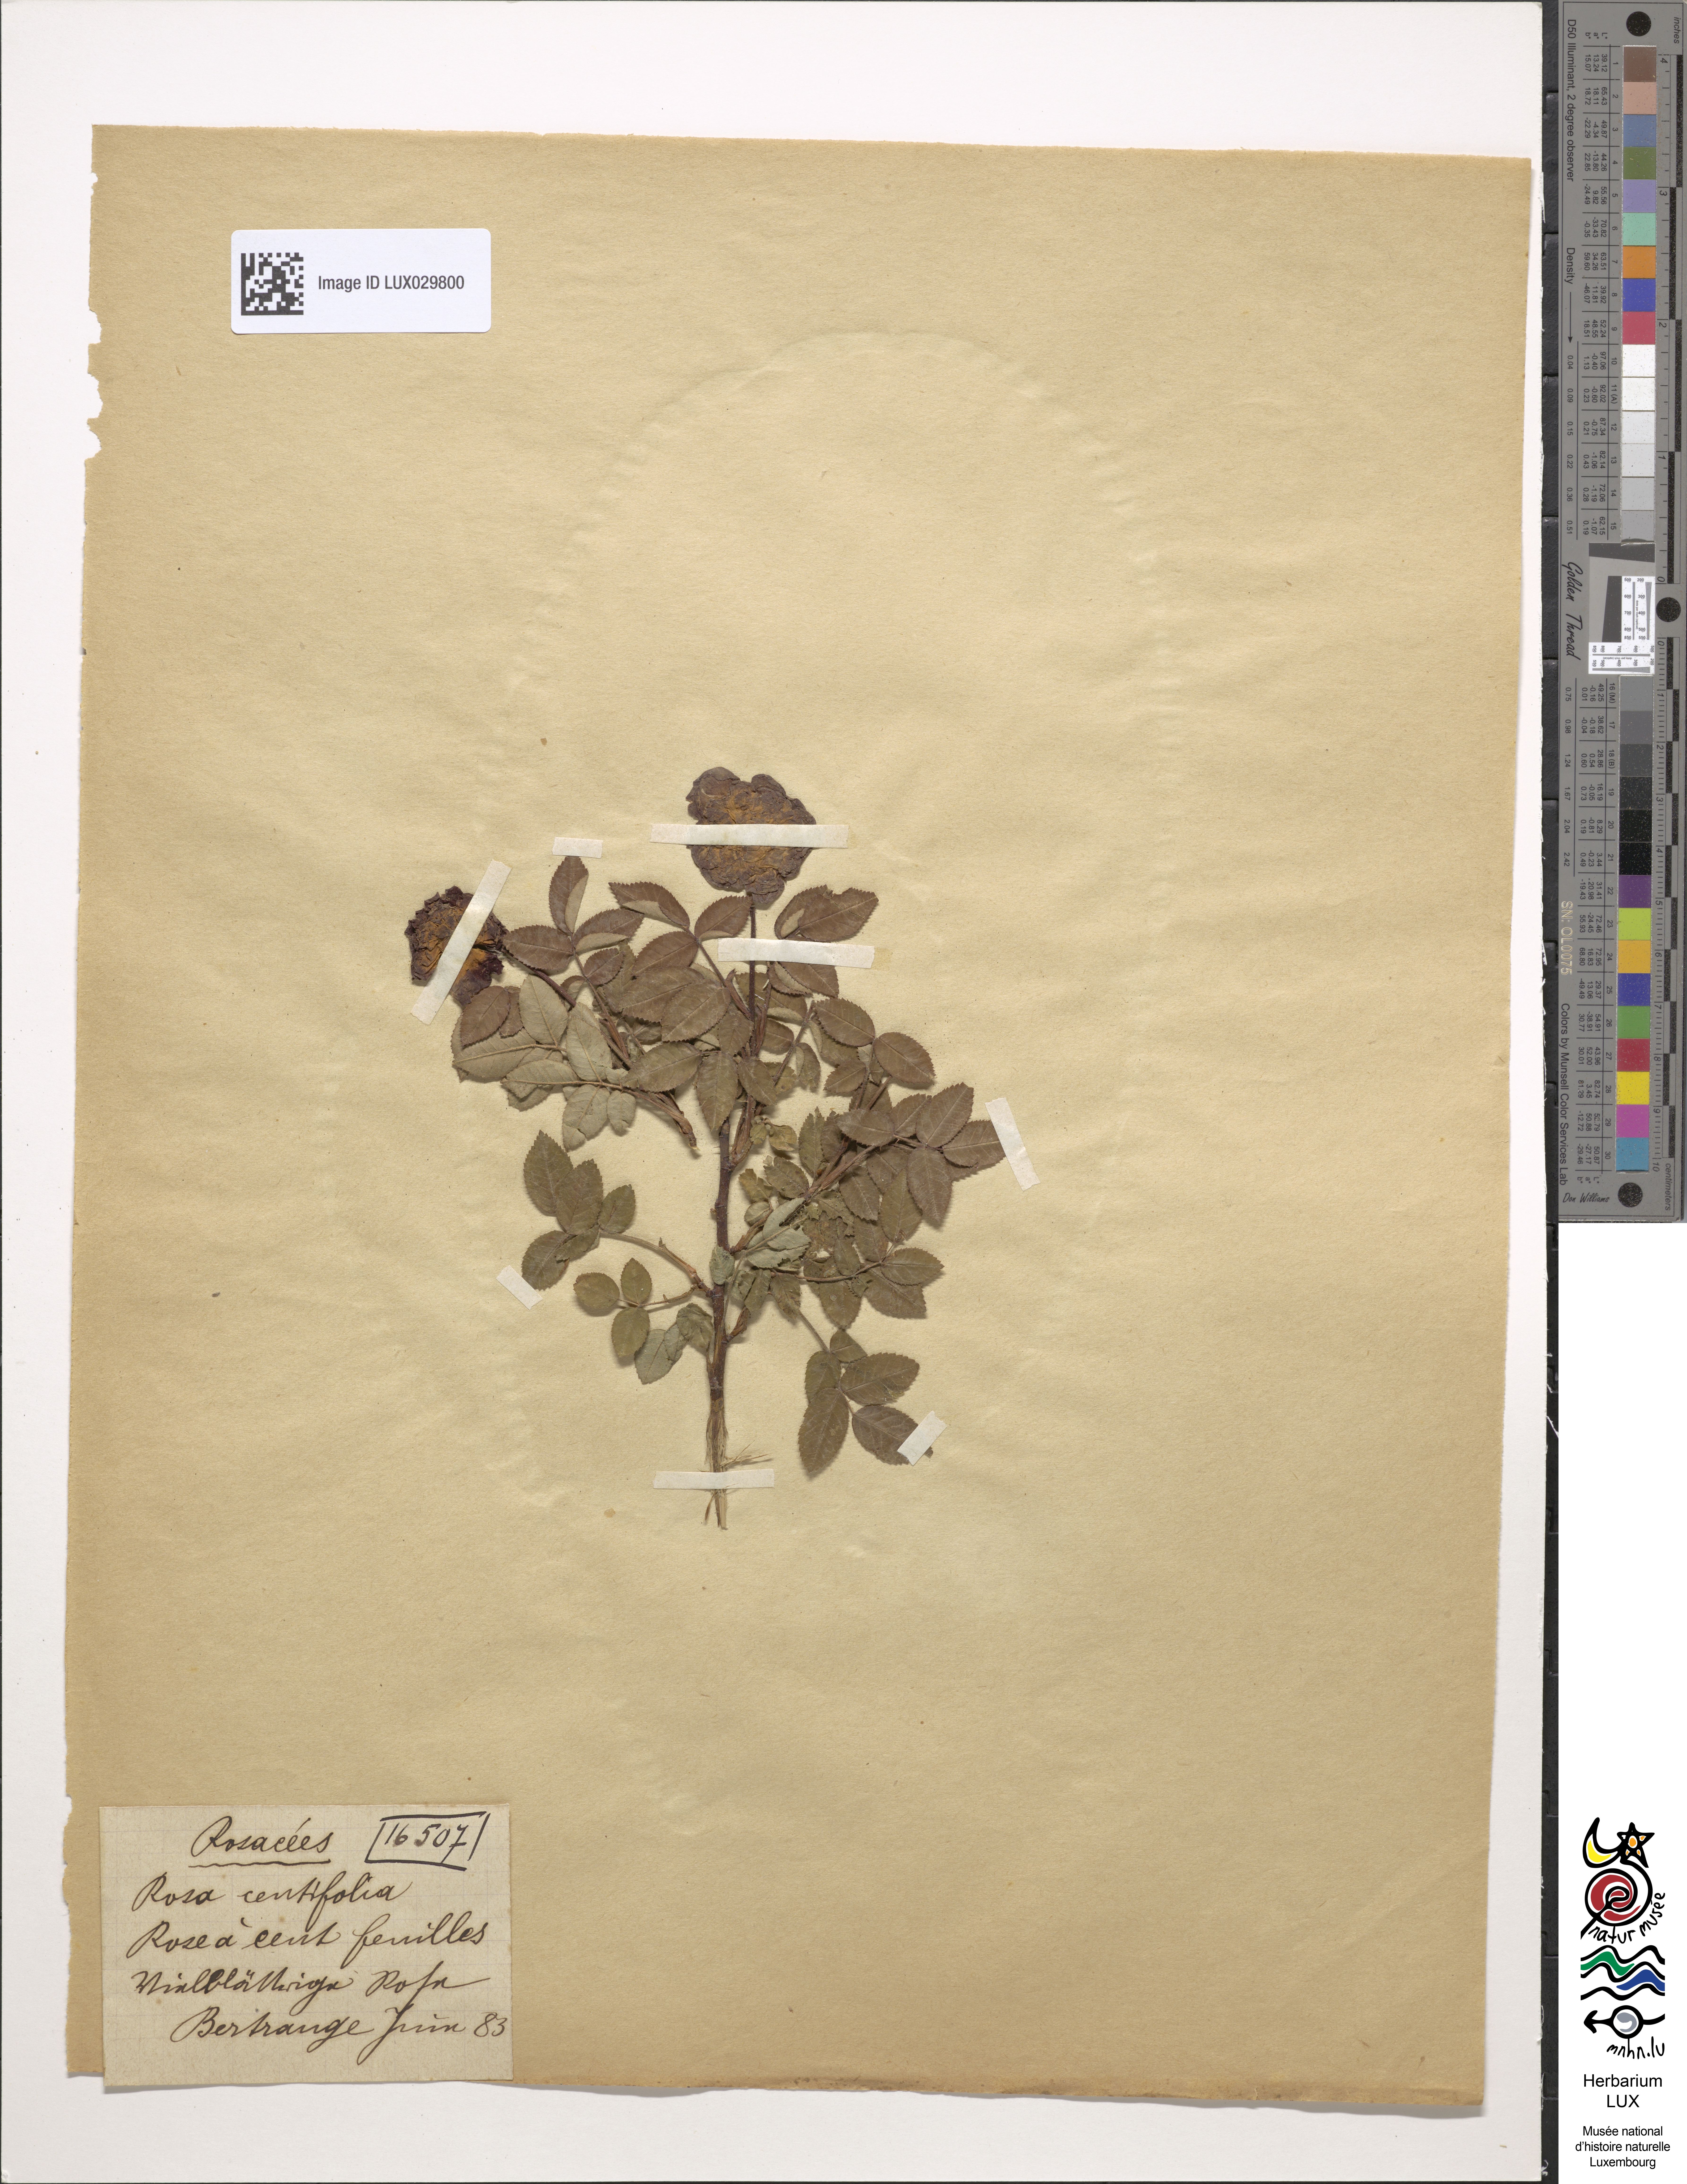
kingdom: Plantae
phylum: Tracheophyta
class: Magnoliopsida
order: Rosales
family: Rosaceae
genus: Rosa
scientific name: Rosa centifolia
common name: Cabbage rose
